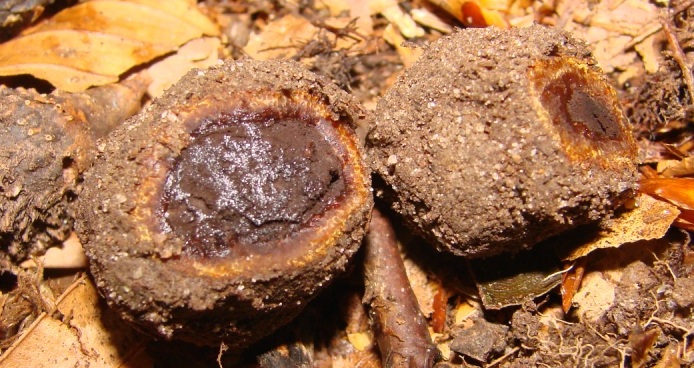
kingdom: Fungi
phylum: Ascomycota
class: Eurotiomycetes
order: Eurotiales
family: Elaphomycetaceae
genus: Elaphomyces
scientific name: Elaphomyces muricatus
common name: vortet hjortetrøffel
